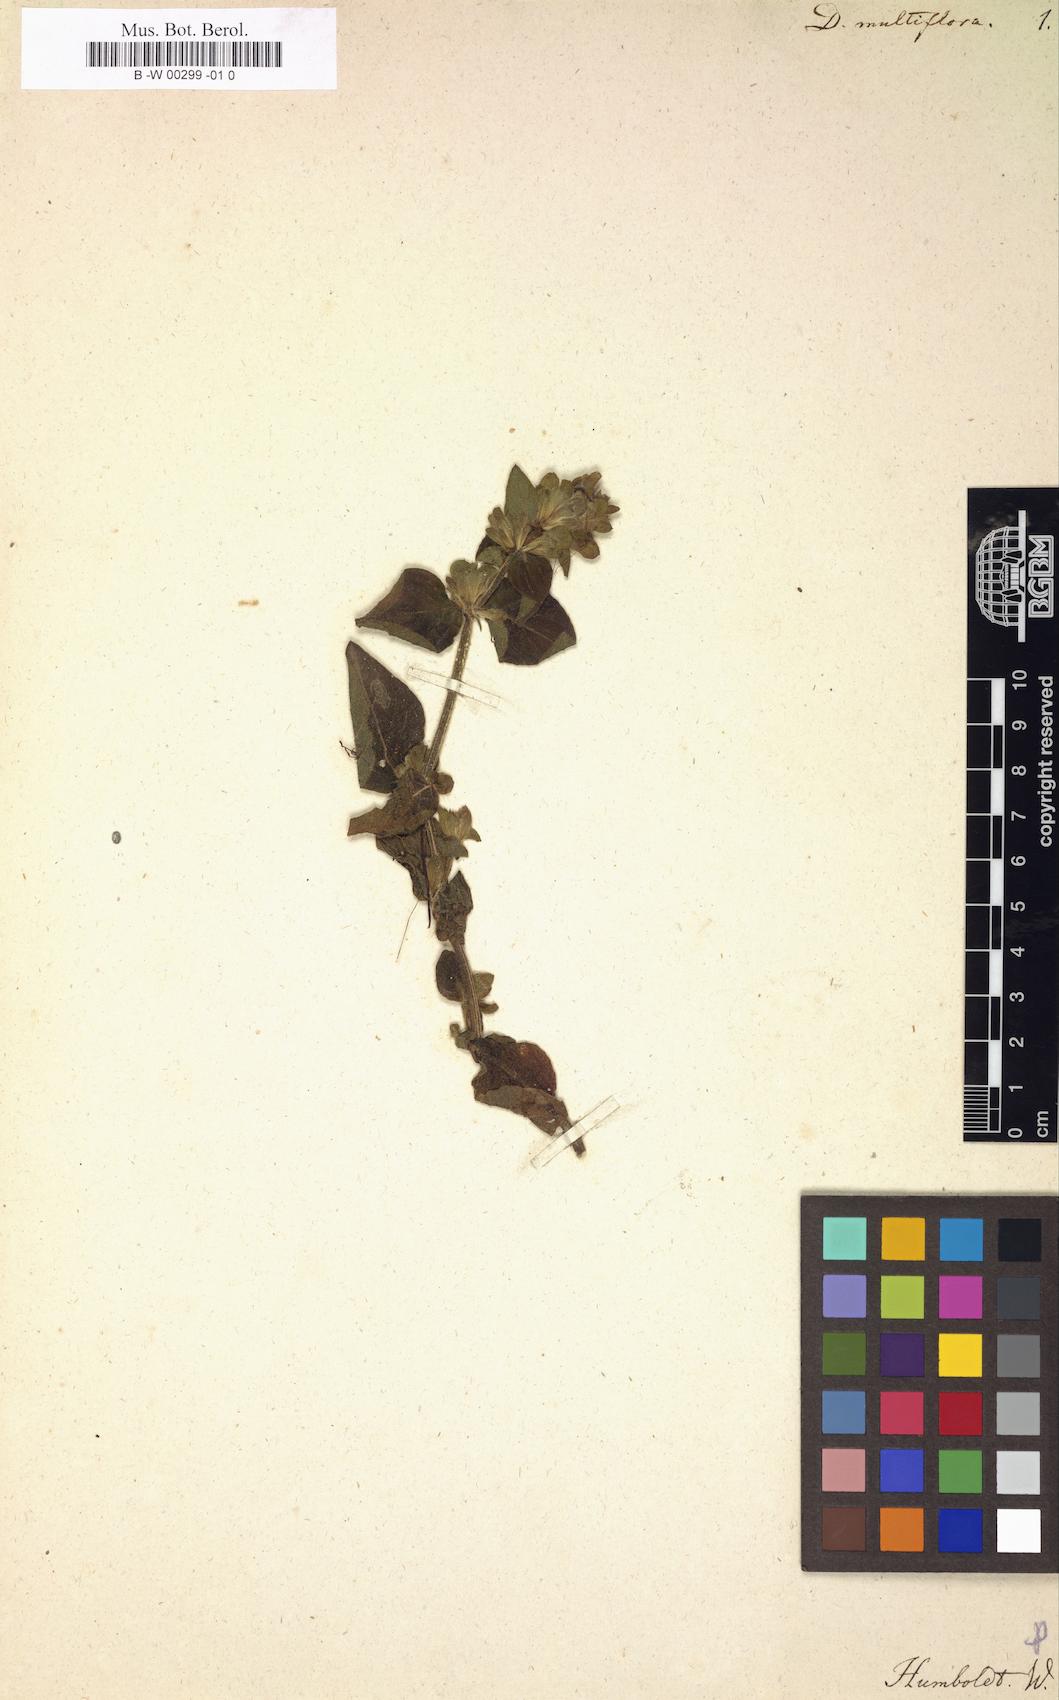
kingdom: Plantae
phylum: Tracheophyta
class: Magnoliopsida
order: Lamiales
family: Acanthaceae
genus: Dicliptera
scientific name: Dicliptera multiflora
